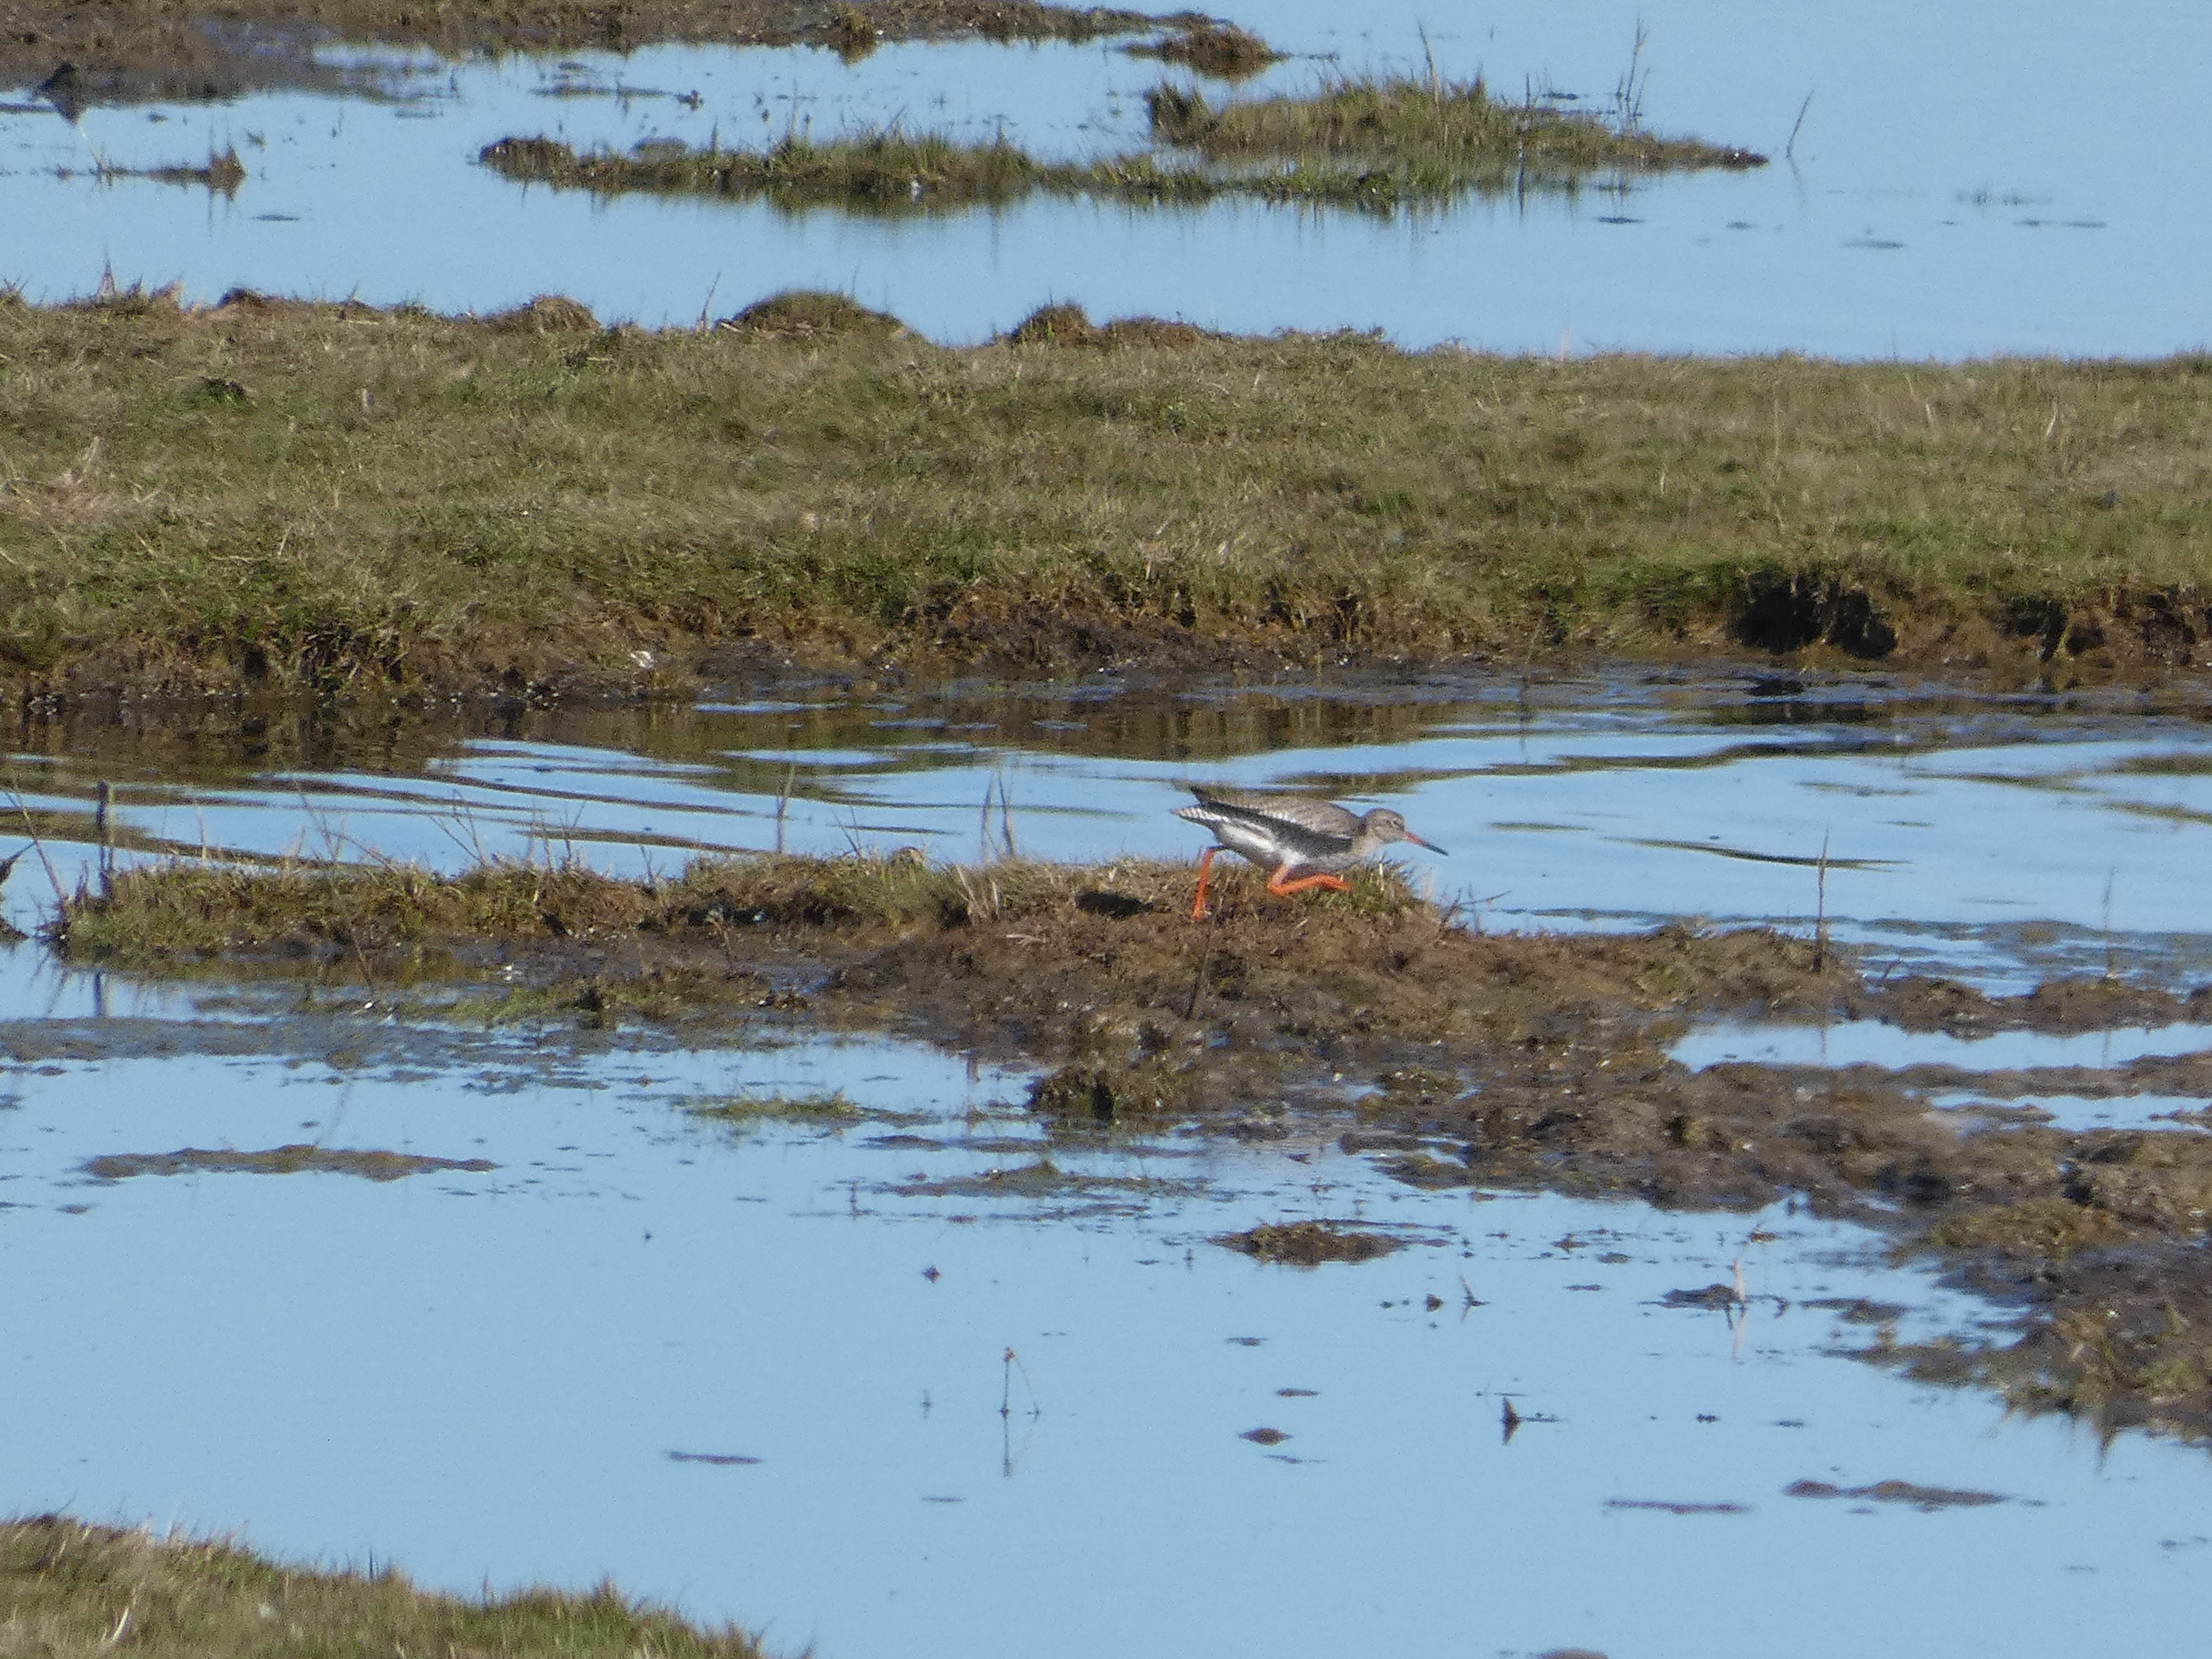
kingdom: Animalia
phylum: Chordata
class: Aves
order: Charadriiformes
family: Scolopacidae
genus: Tringa
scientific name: Tringa totanus
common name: Rødben
